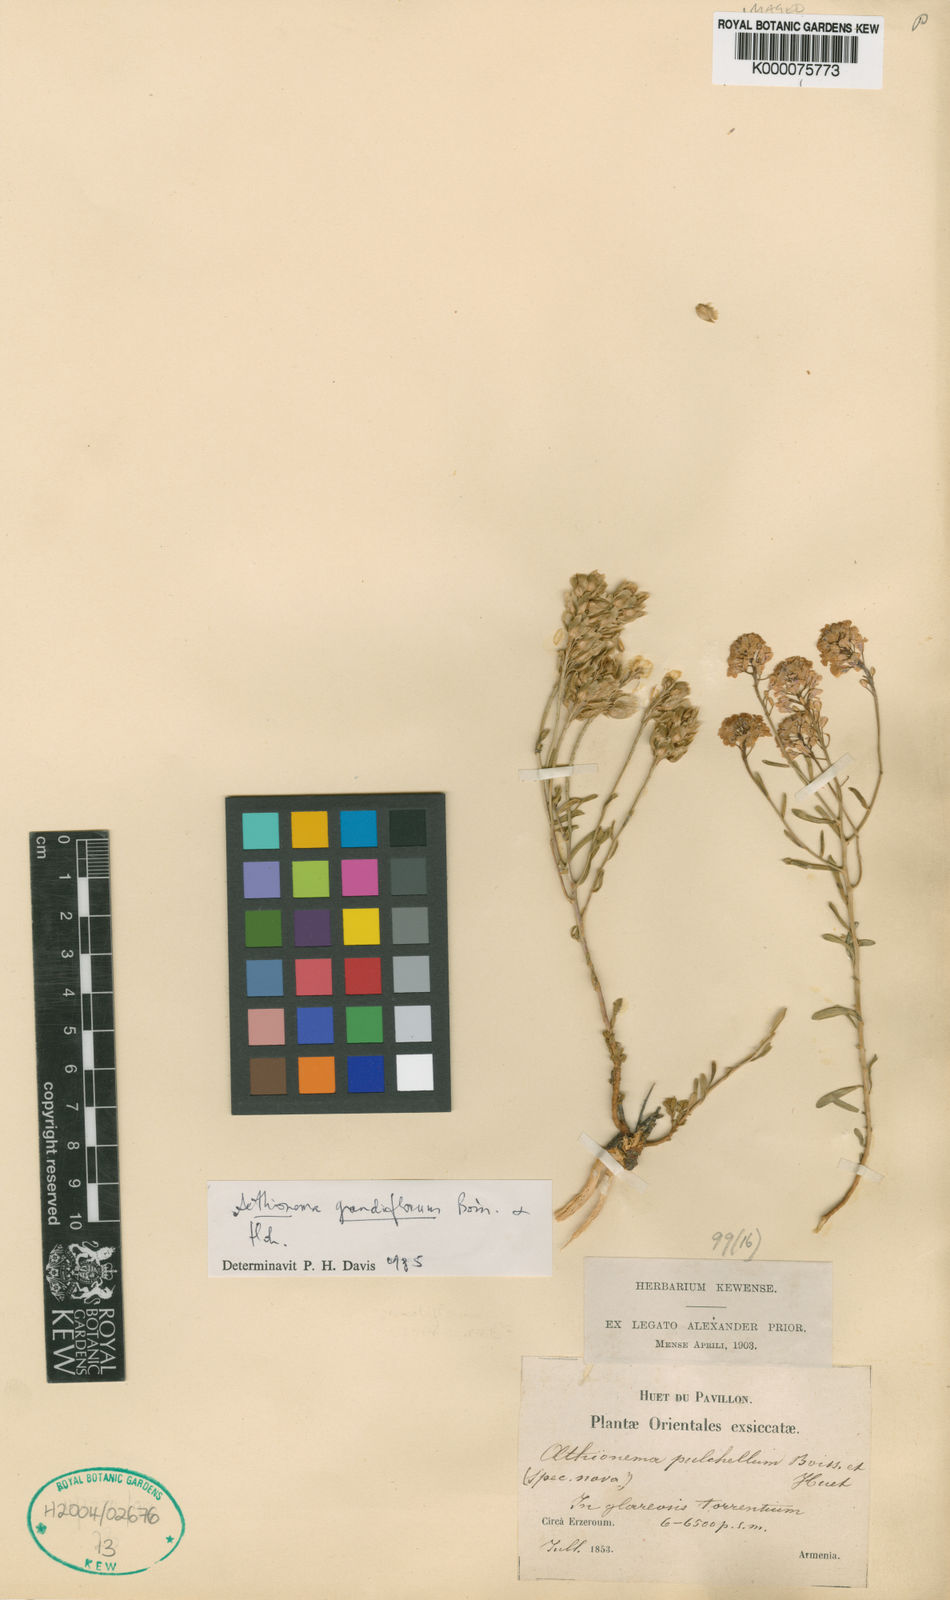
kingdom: Plantae
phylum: Tracheophyta
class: Magnoliopsida
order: Brassicales
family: Brassicaceae
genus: Aethionema
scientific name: Aethionema grandiflorum
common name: Persian stonecress
